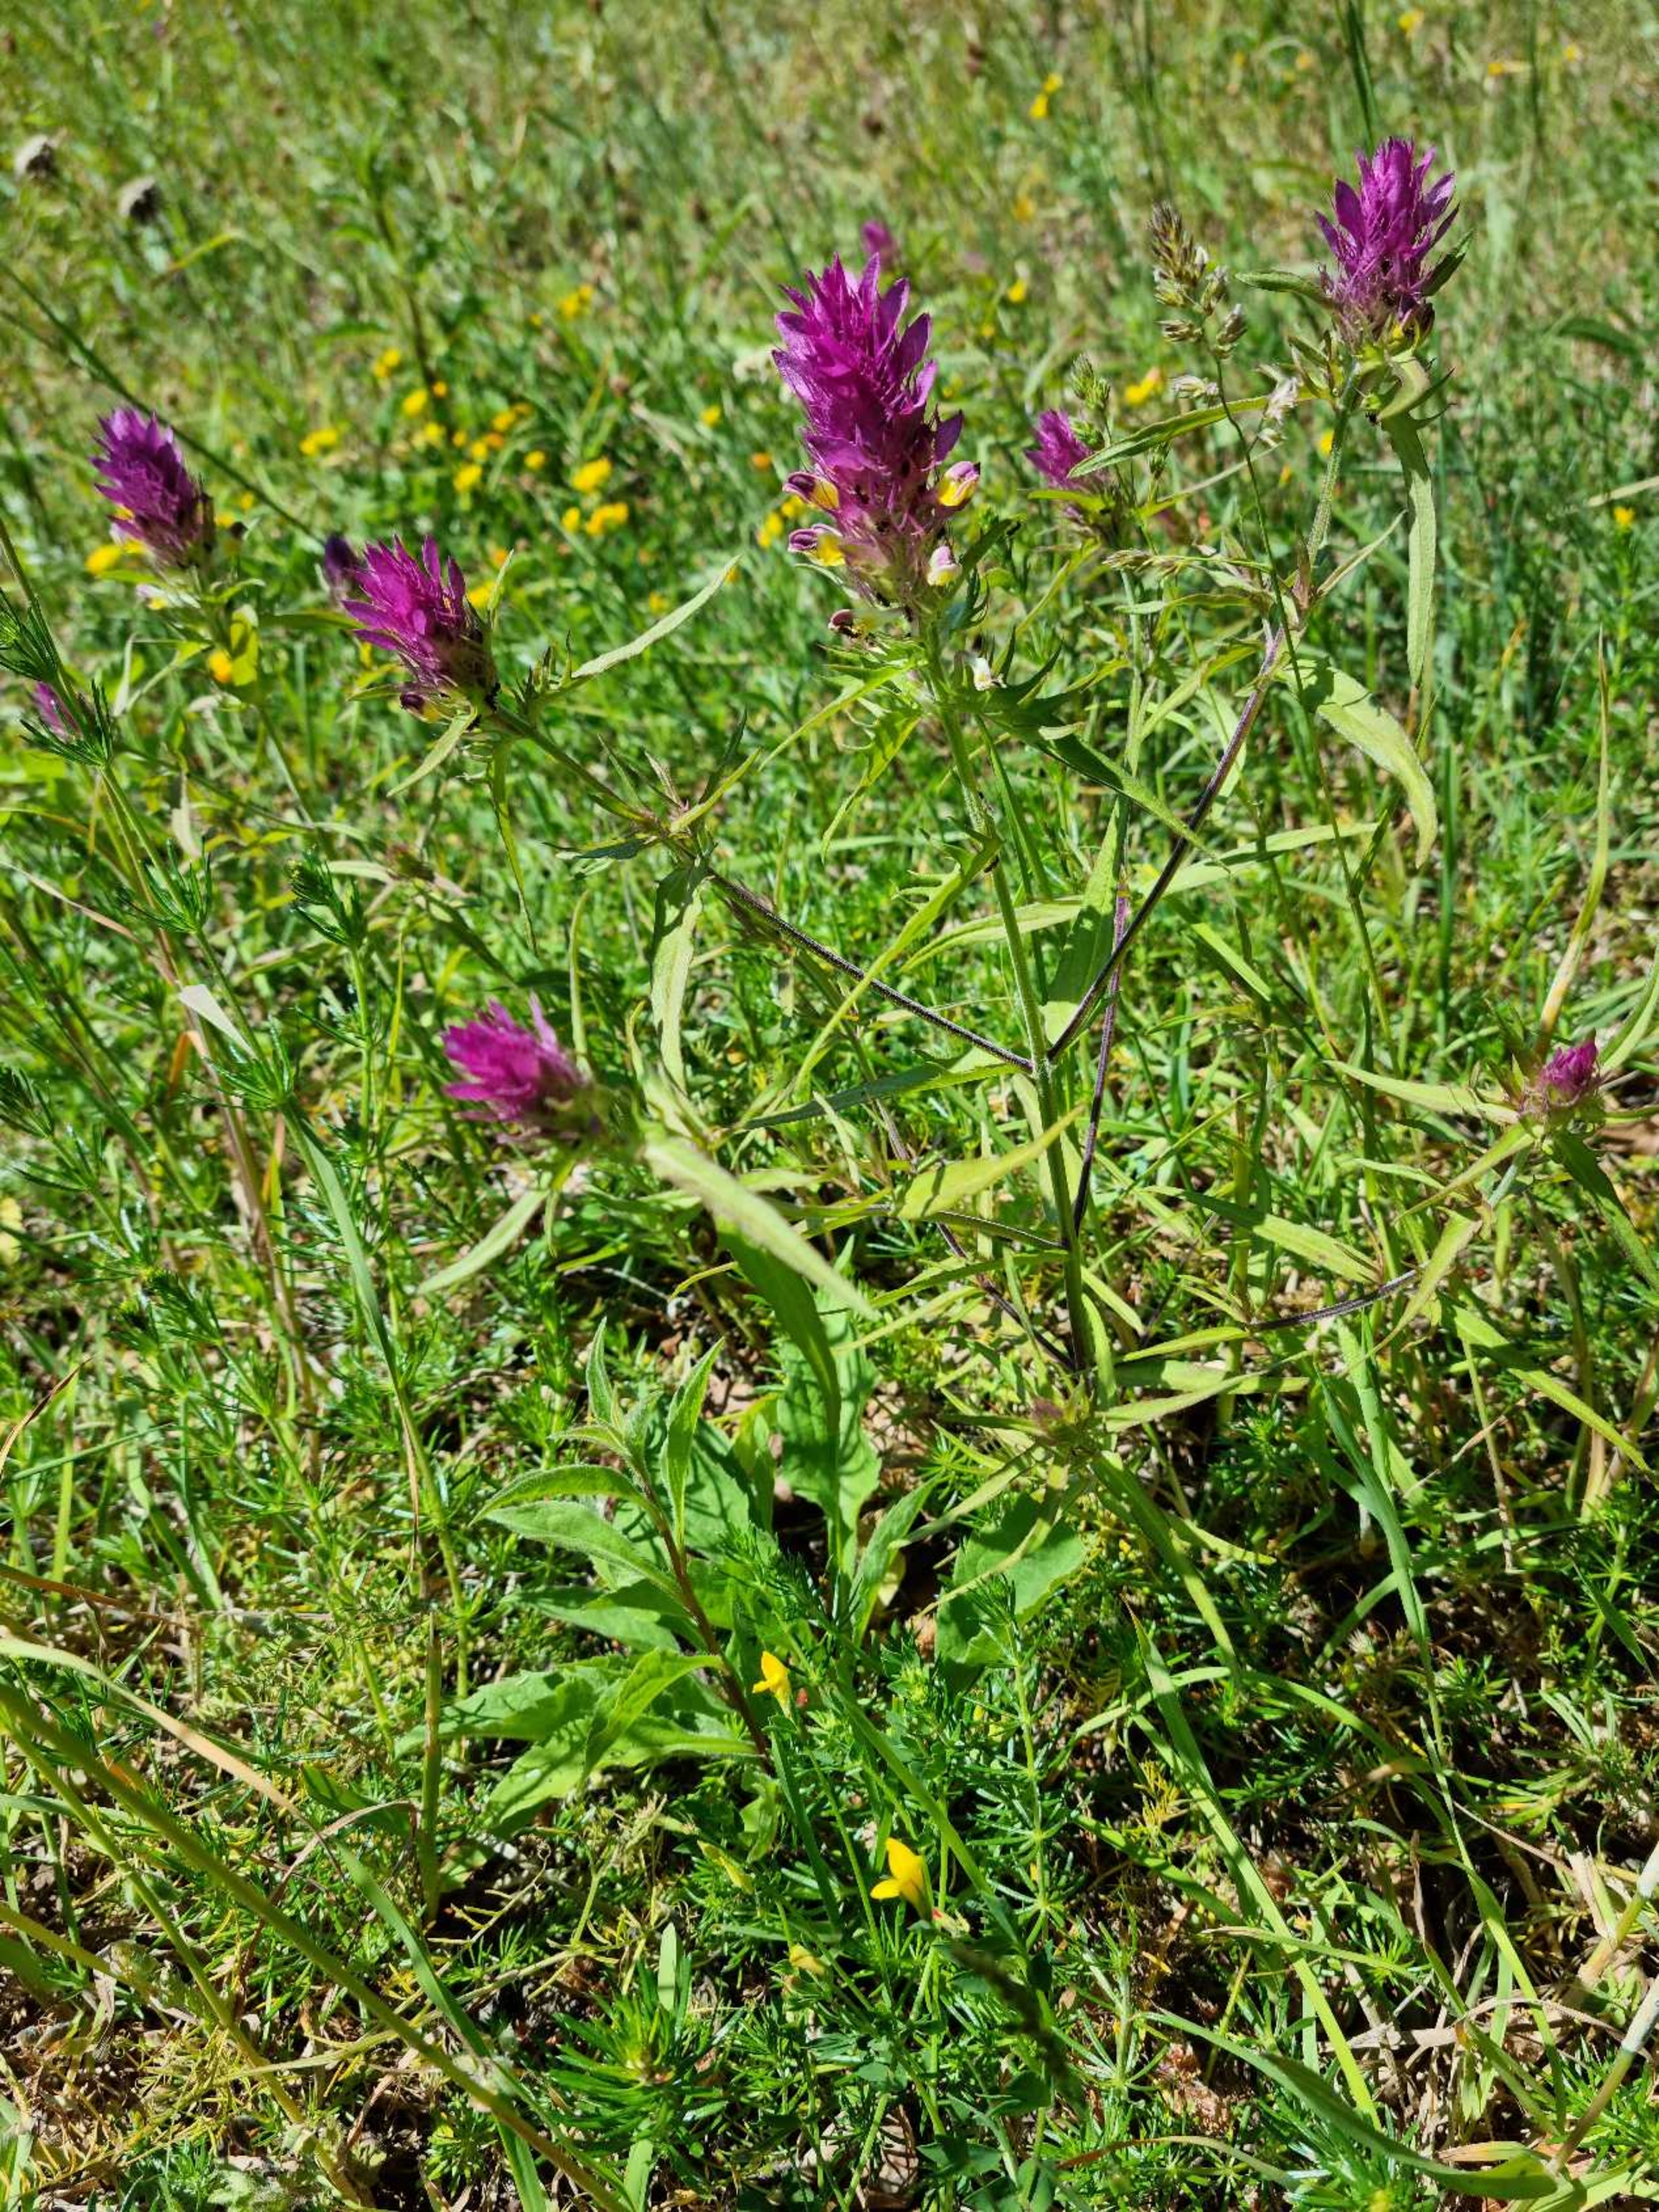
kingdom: Plantae
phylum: Tracheophyta
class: Magnoliopsida
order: Lamiales
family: Orobanchaceae
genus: Melampyrum
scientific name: Melampyrum arvense
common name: Ager-kohvede
